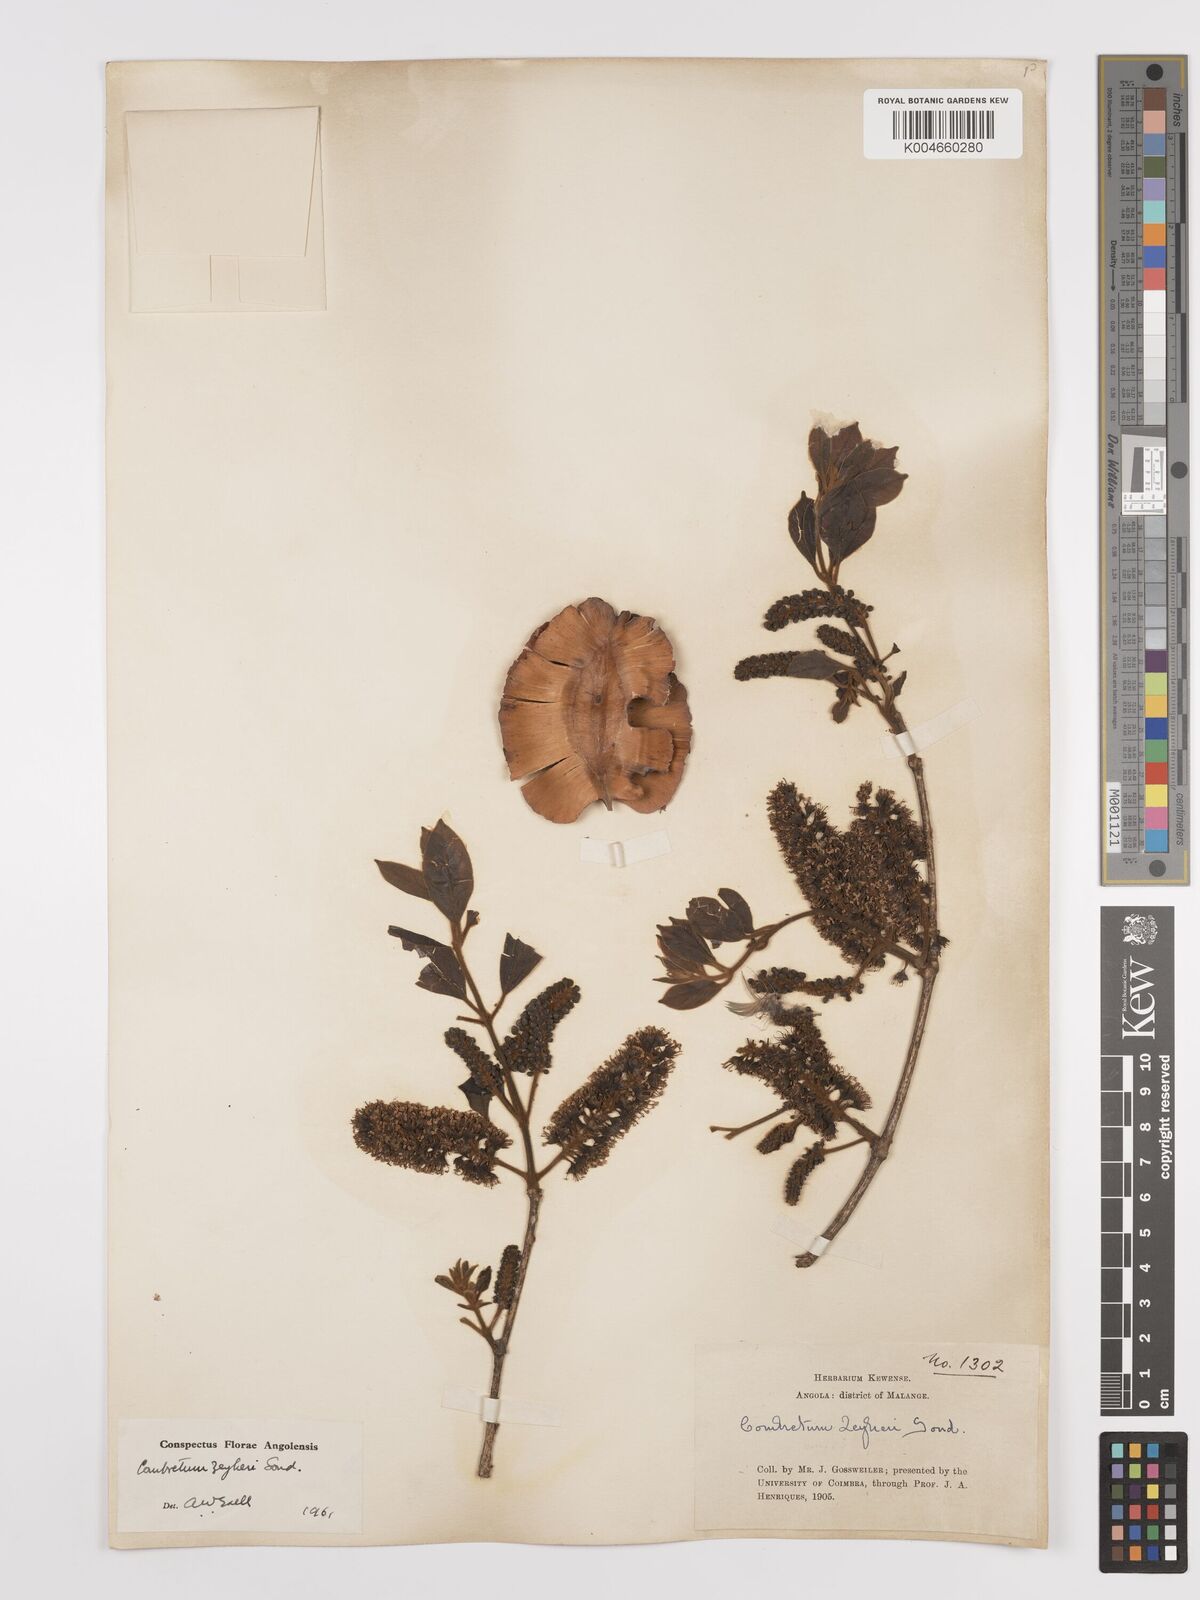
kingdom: Plantae
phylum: Tracheophyta
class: Magnoliopsida
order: Myrtales
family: Combretaceae
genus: Combretum
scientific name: Combretum zeyheri
